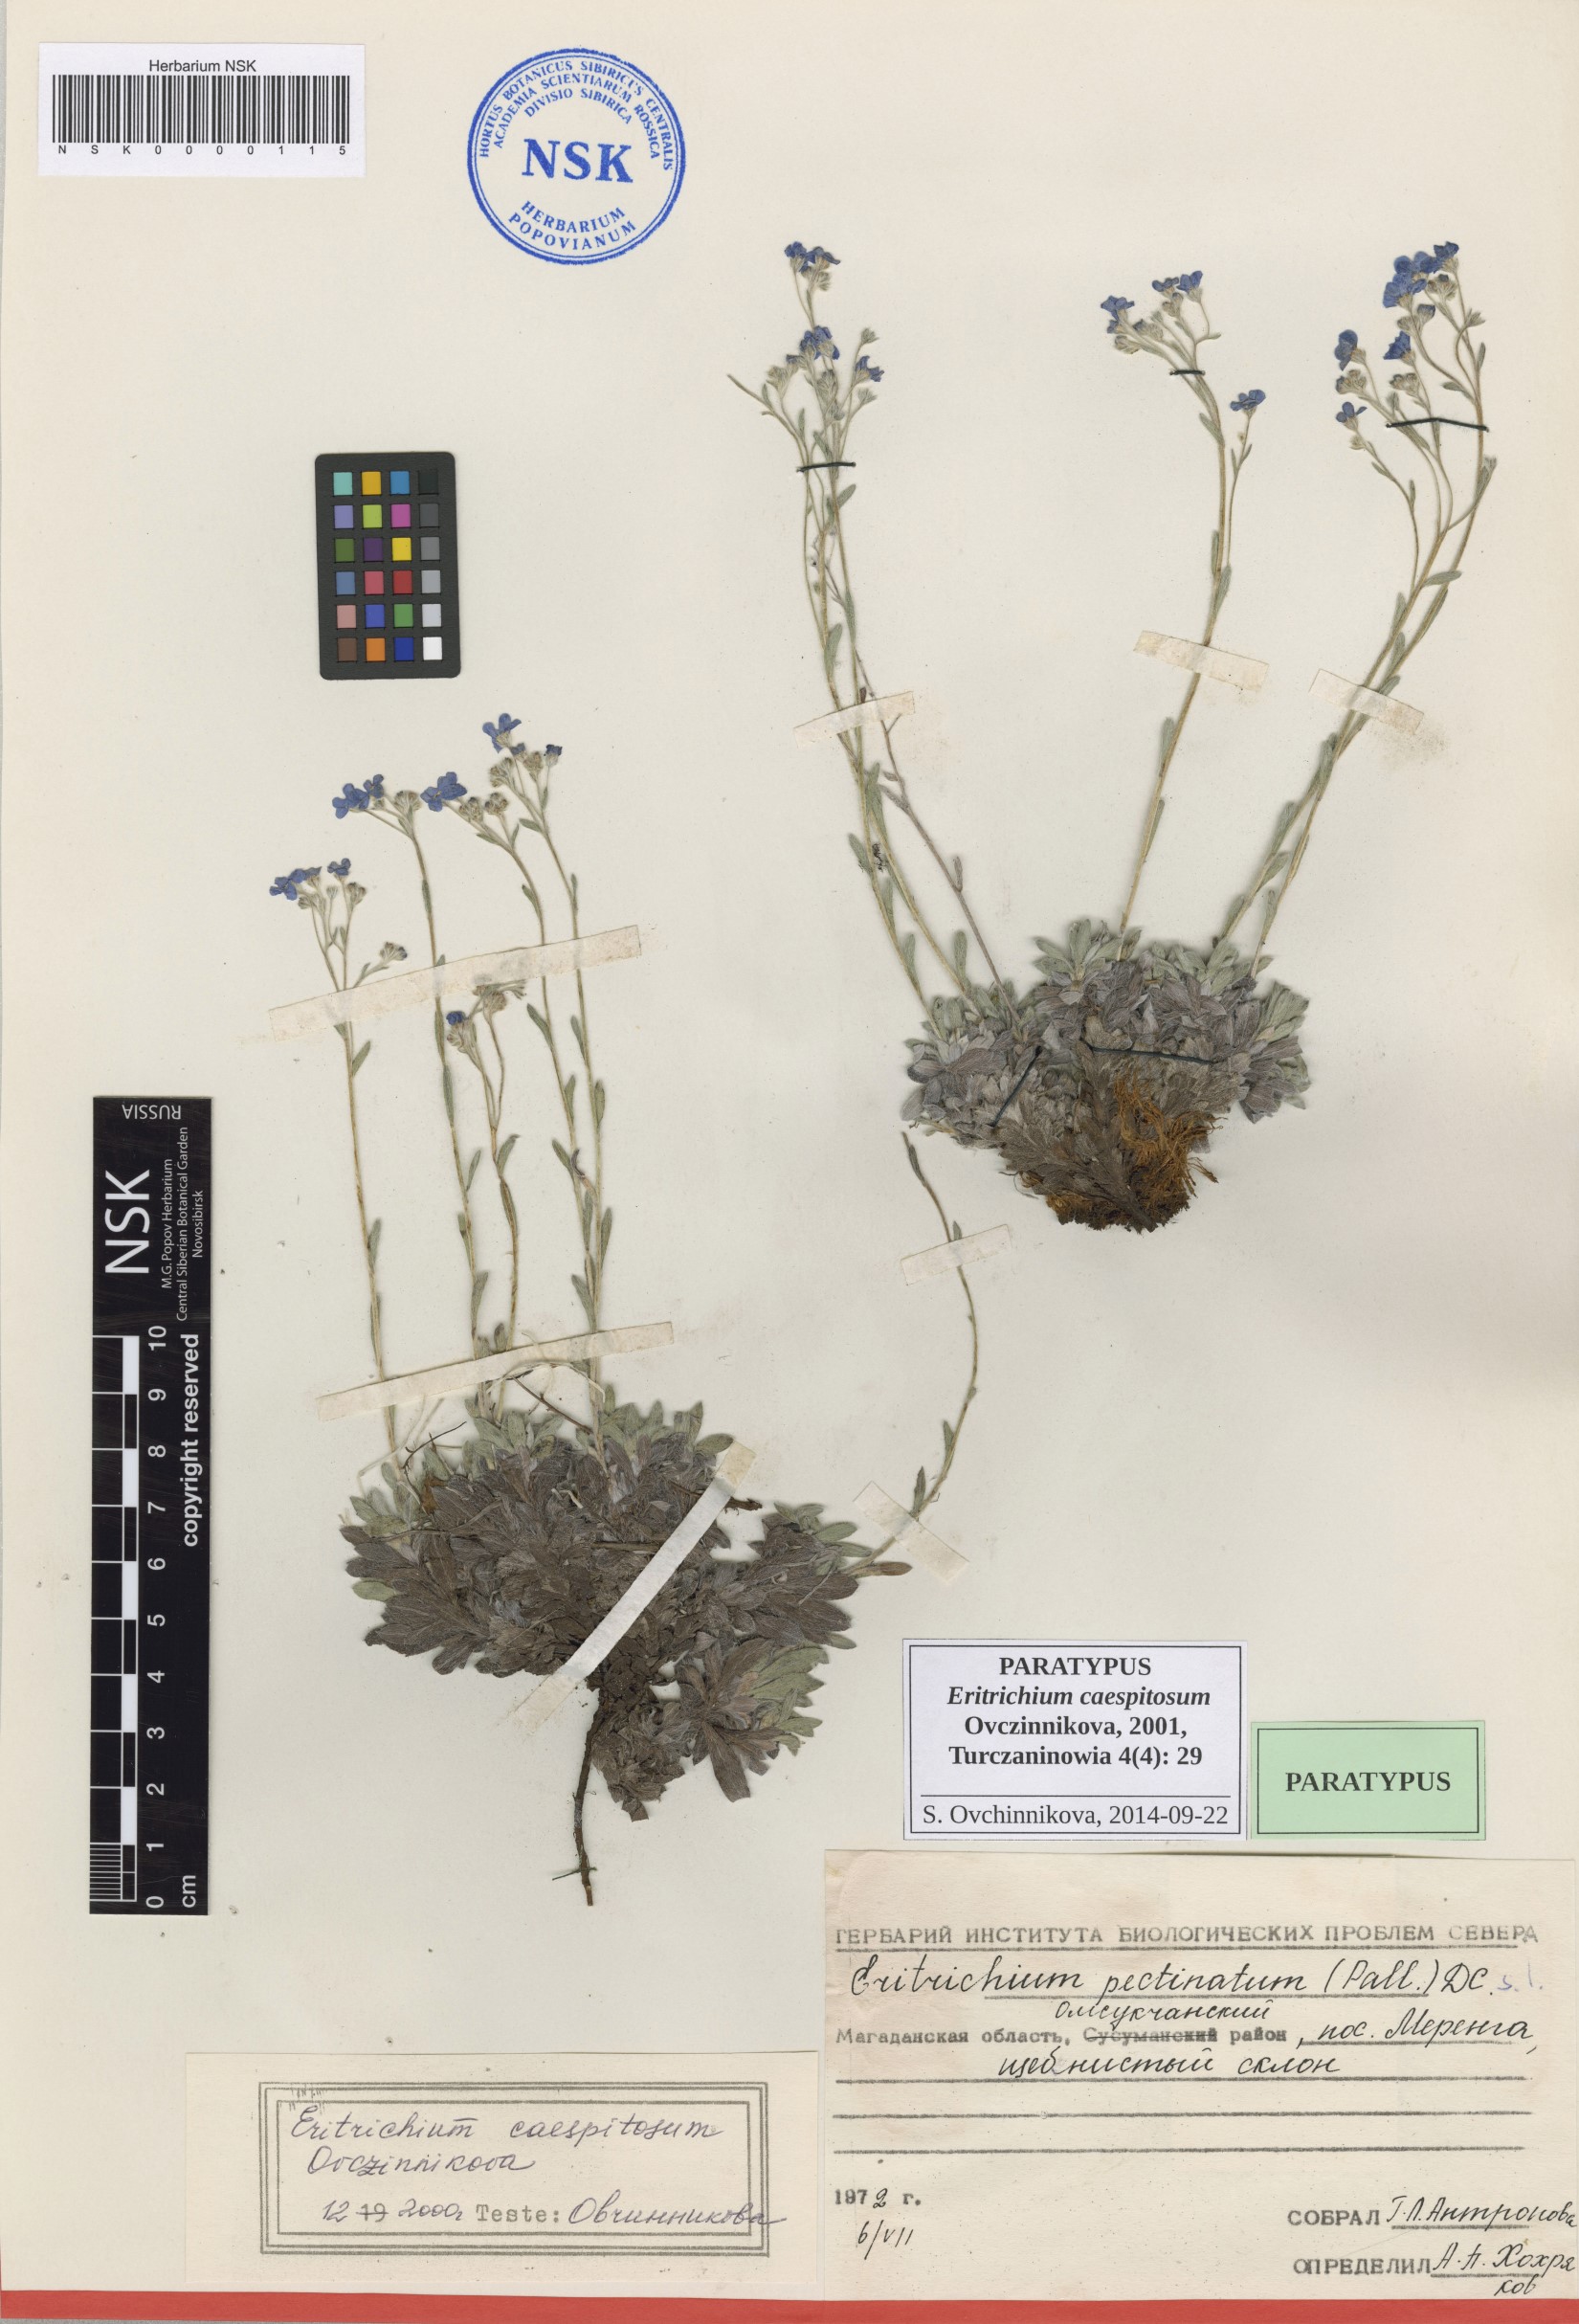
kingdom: Plantae
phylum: Tracheophyta
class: Magnoliopsida
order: Boraginales
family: Boraginaceae
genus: Eritrichium
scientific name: Eritrichium caespitosum
